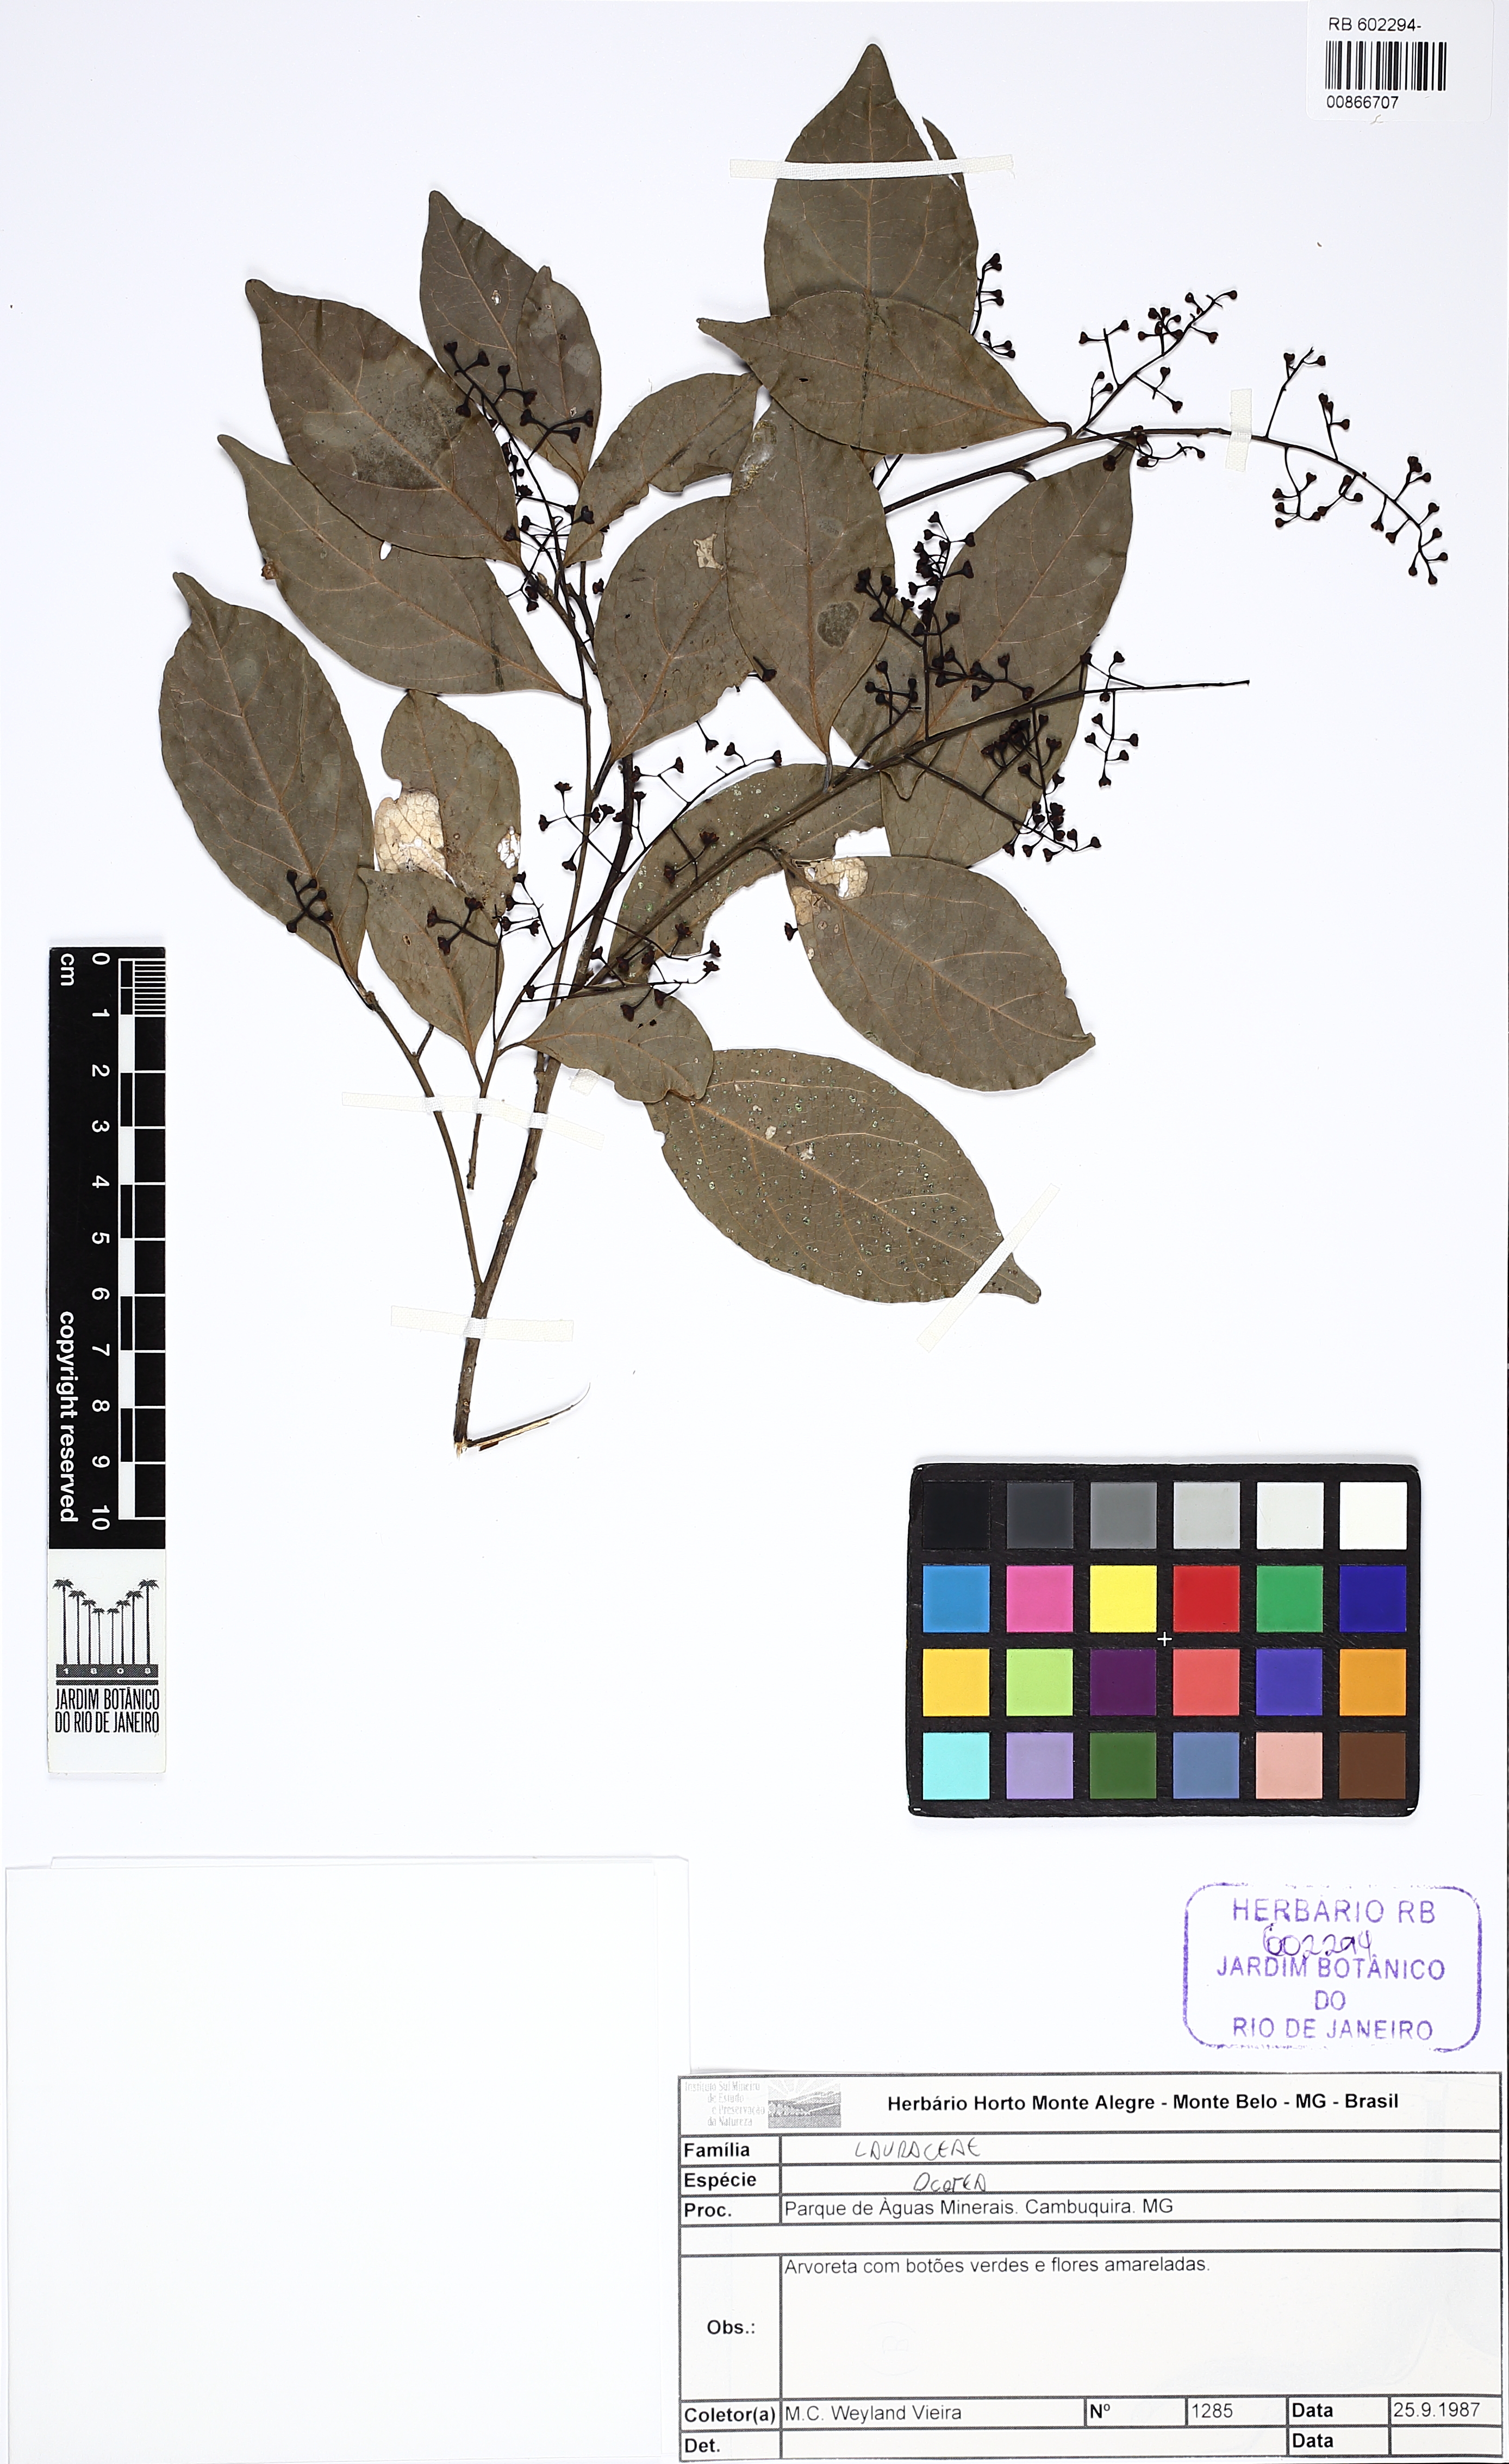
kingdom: Plantae
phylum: Tracheophyta
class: Magnoliopsida
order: Laurales
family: Lauraceae
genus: Ocotea
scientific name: Ocotea
